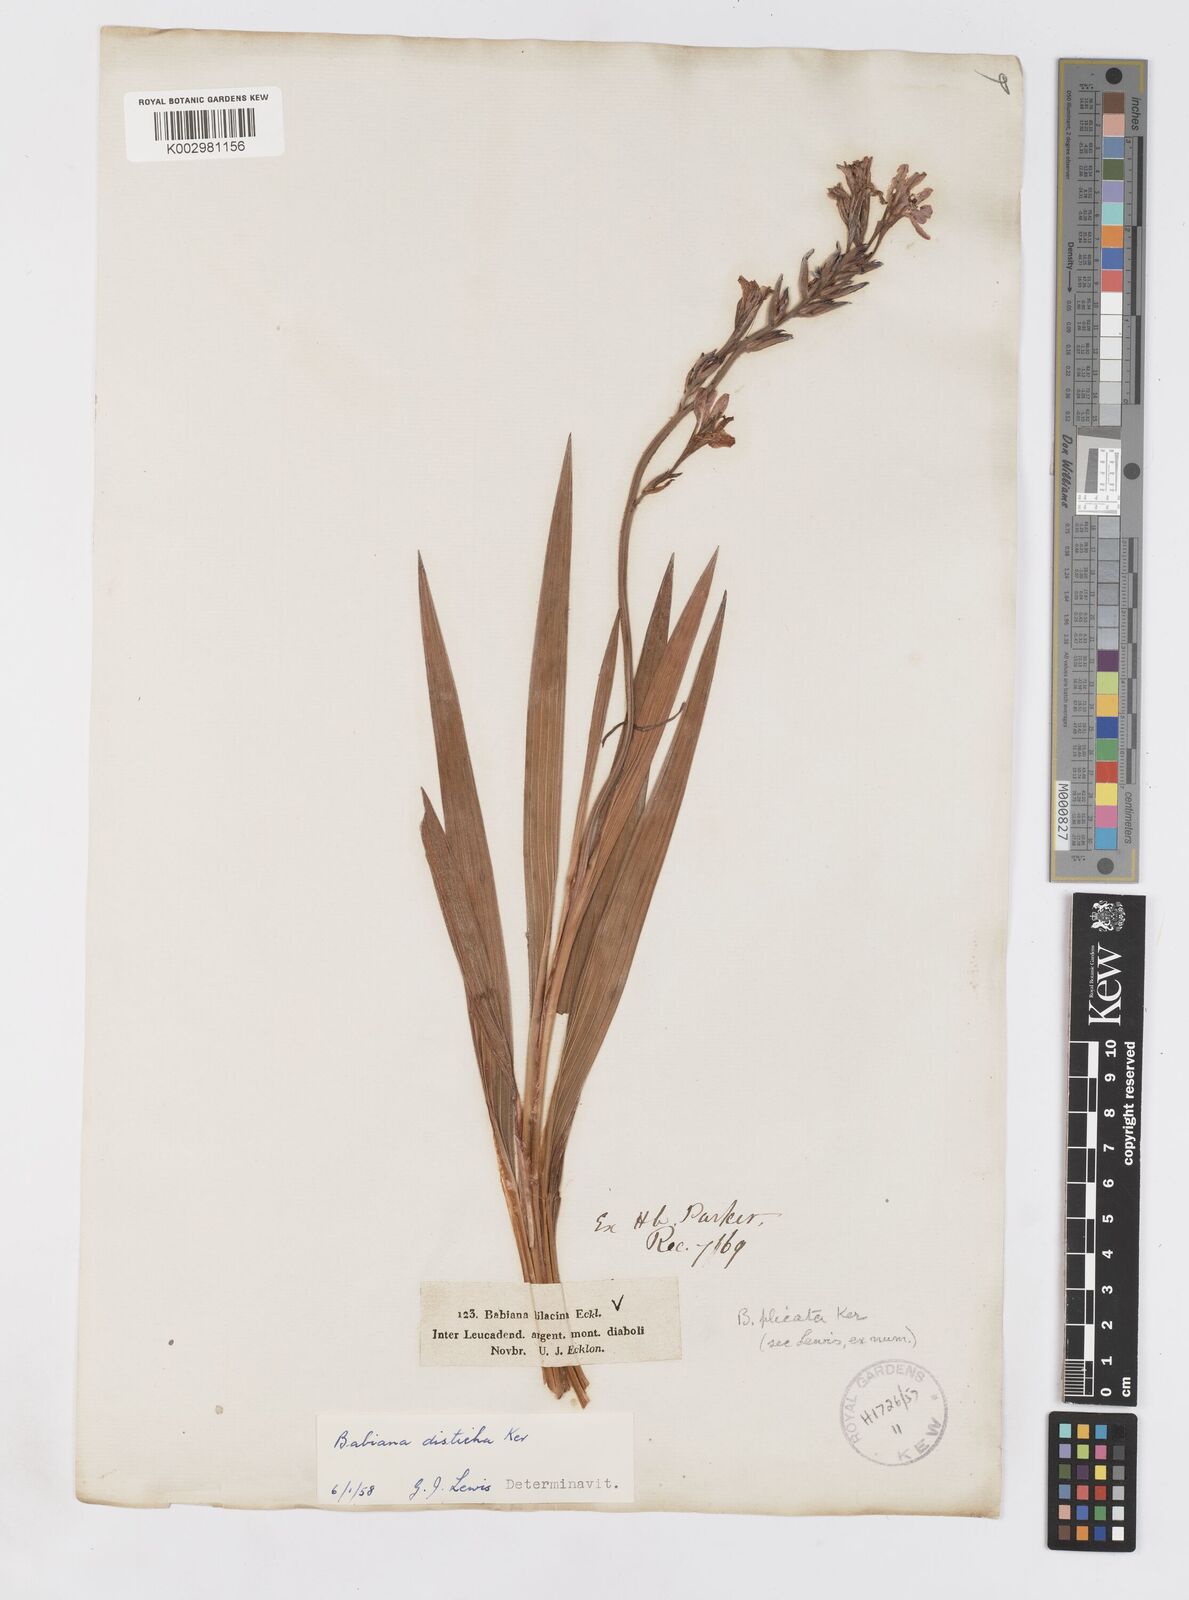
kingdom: Plantae
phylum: Tracheophyta
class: Liliopsida
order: Asparagales
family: Iridaceae
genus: Babiana
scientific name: Babiana fragrans
